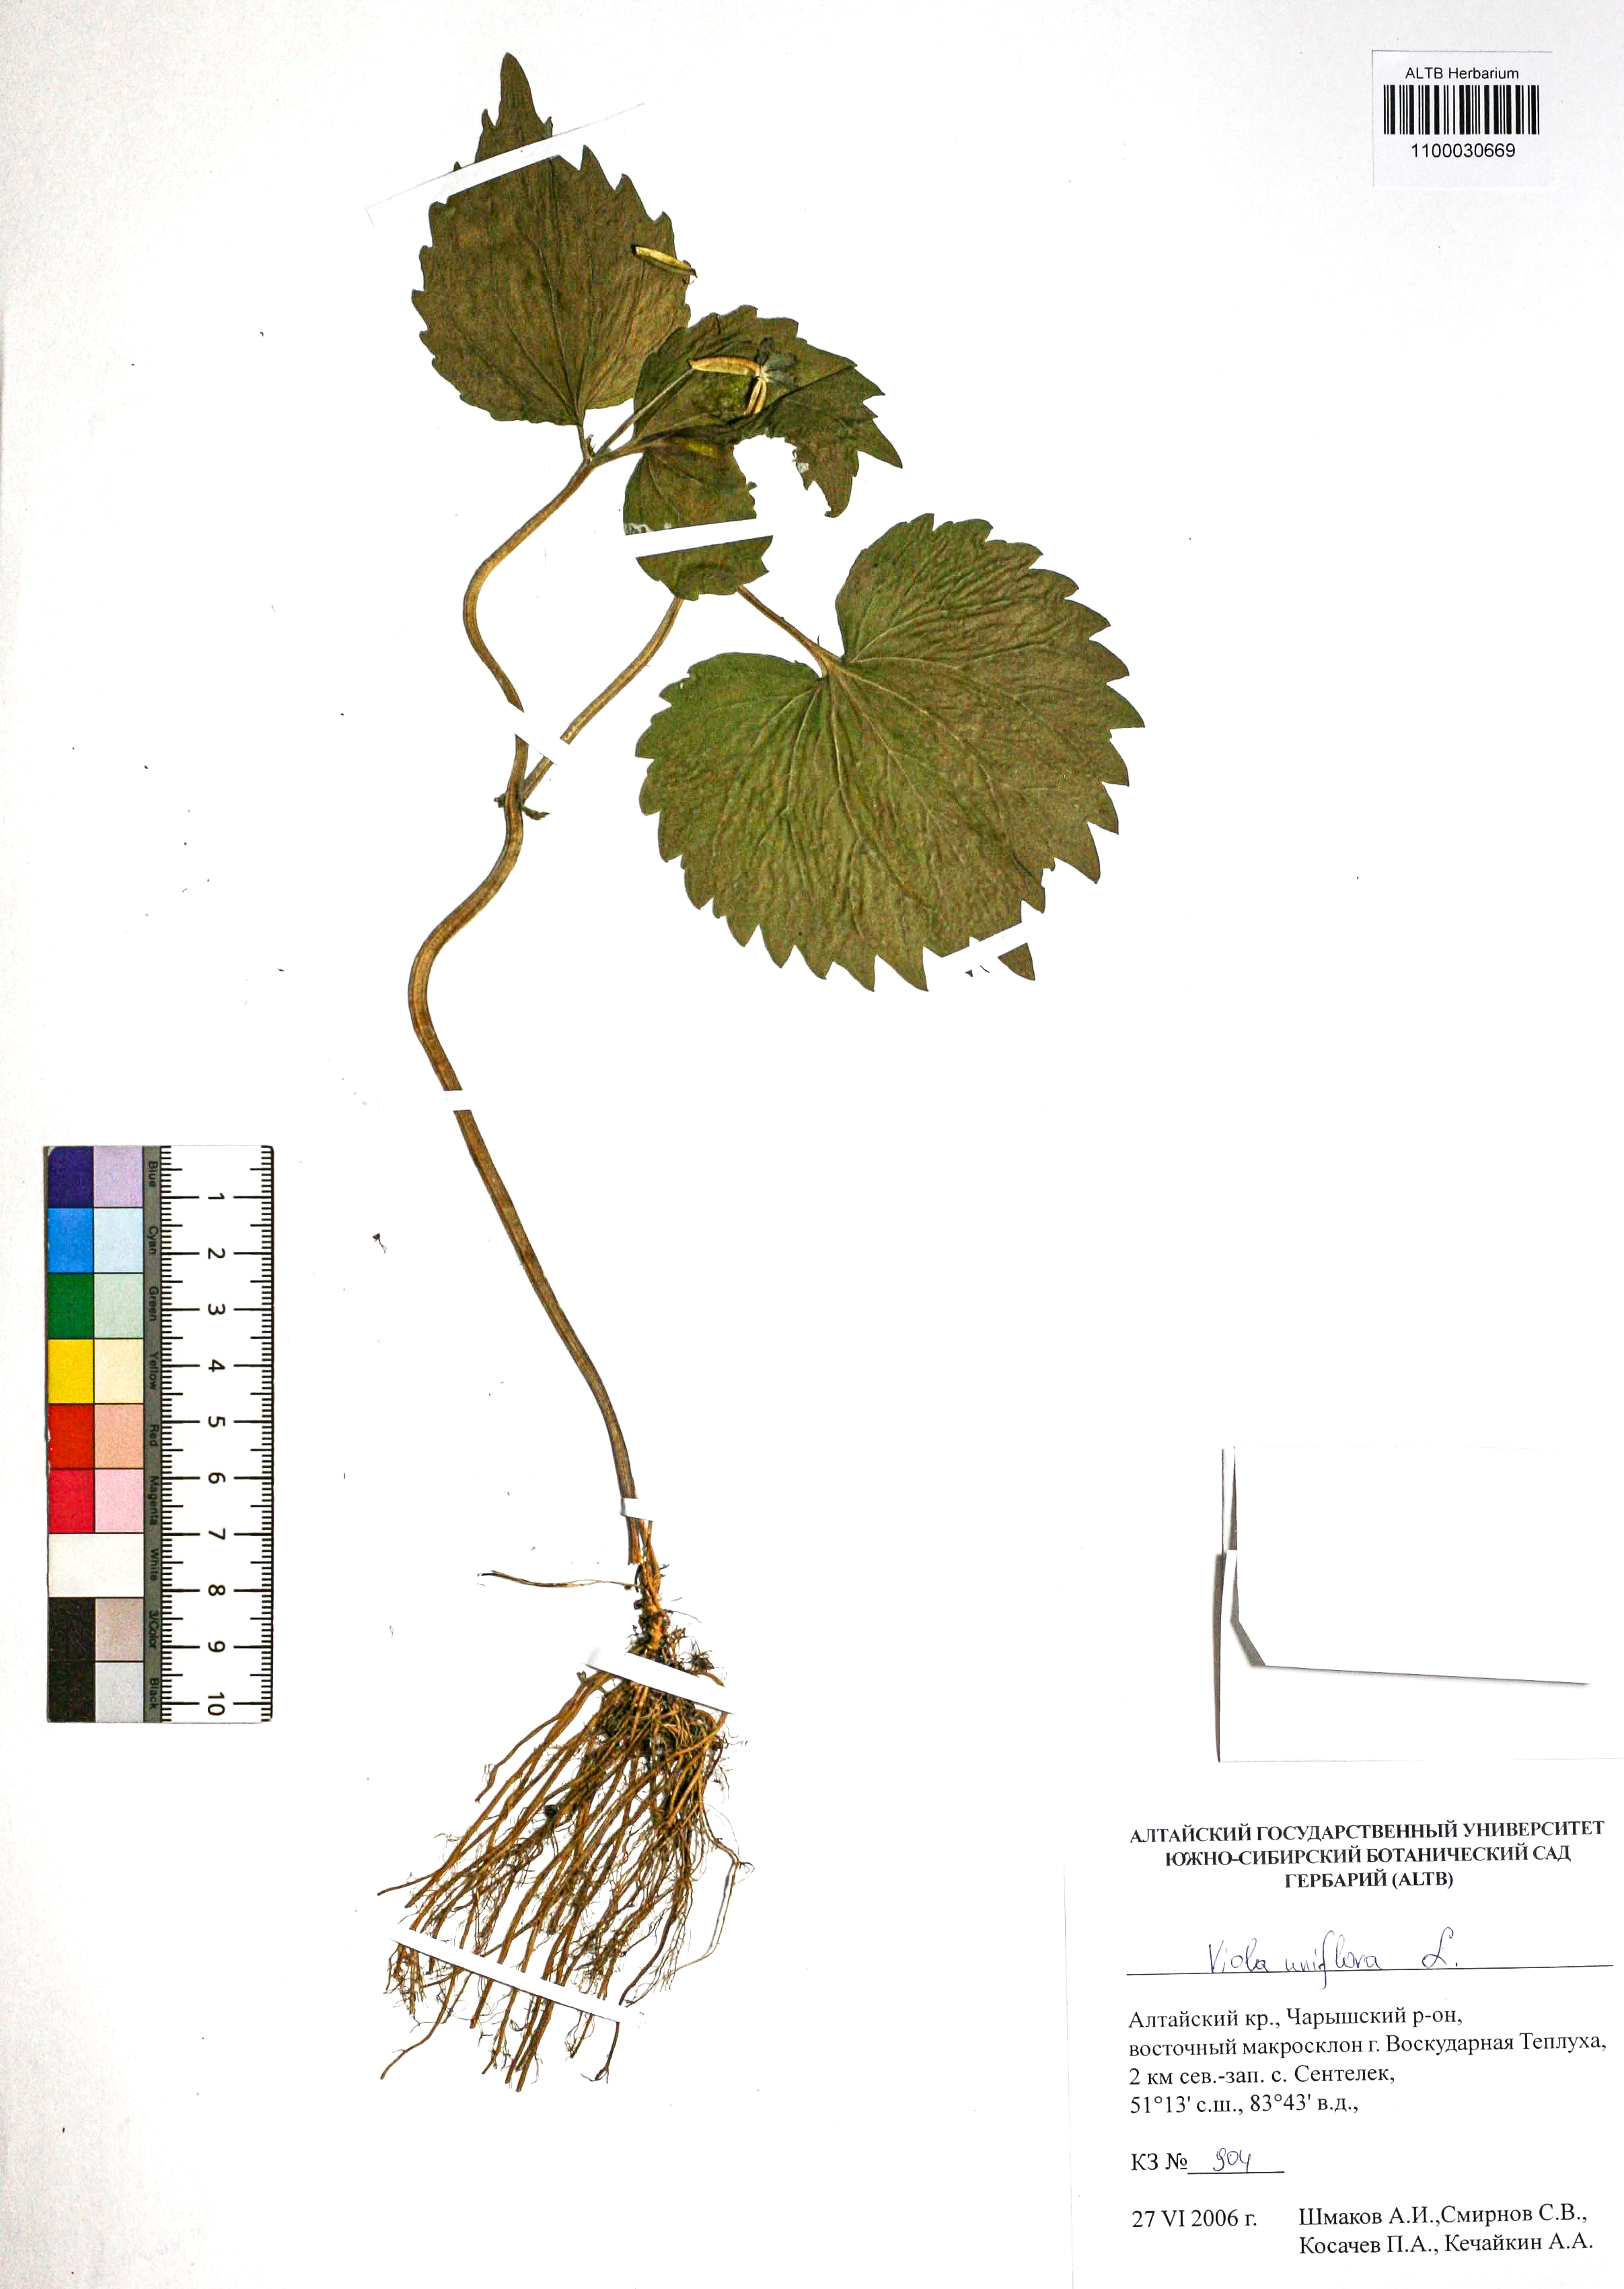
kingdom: Plantae
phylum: Tracheophyta
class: Magnoliopsida
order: Malpighiales
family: Violaceae
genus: Viola
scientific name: Viola uniflora
